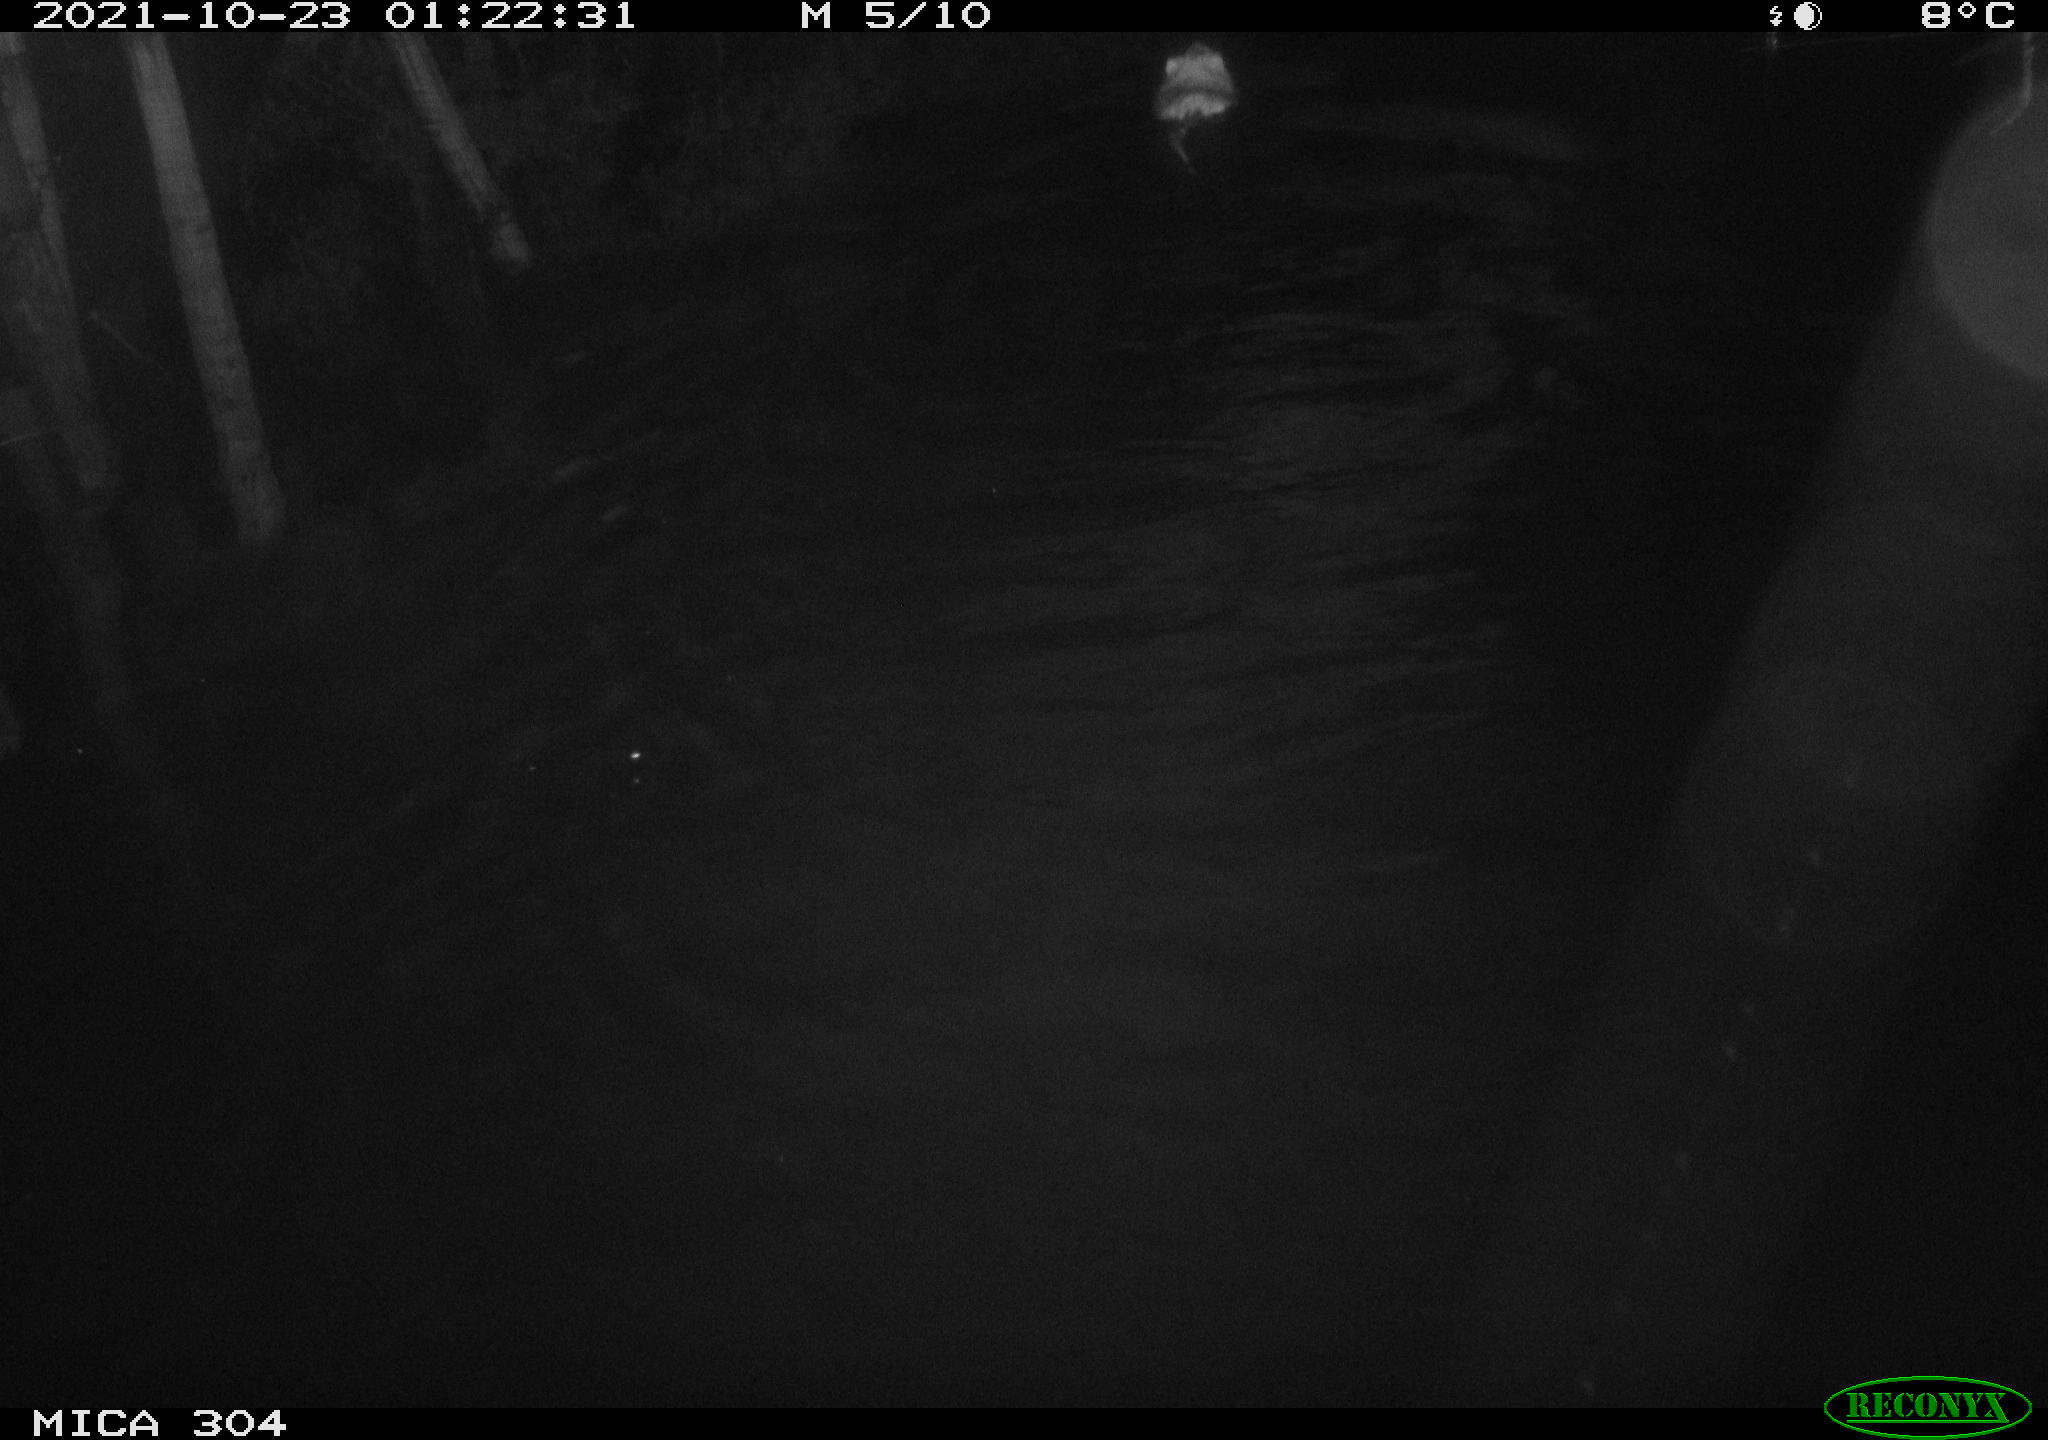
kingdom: Animalia
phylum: Chordata
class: Mammalia
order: Rodentia
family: Cricetidae
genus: Ondatra
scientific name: Ondatra zibethicus
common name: Muskrat
